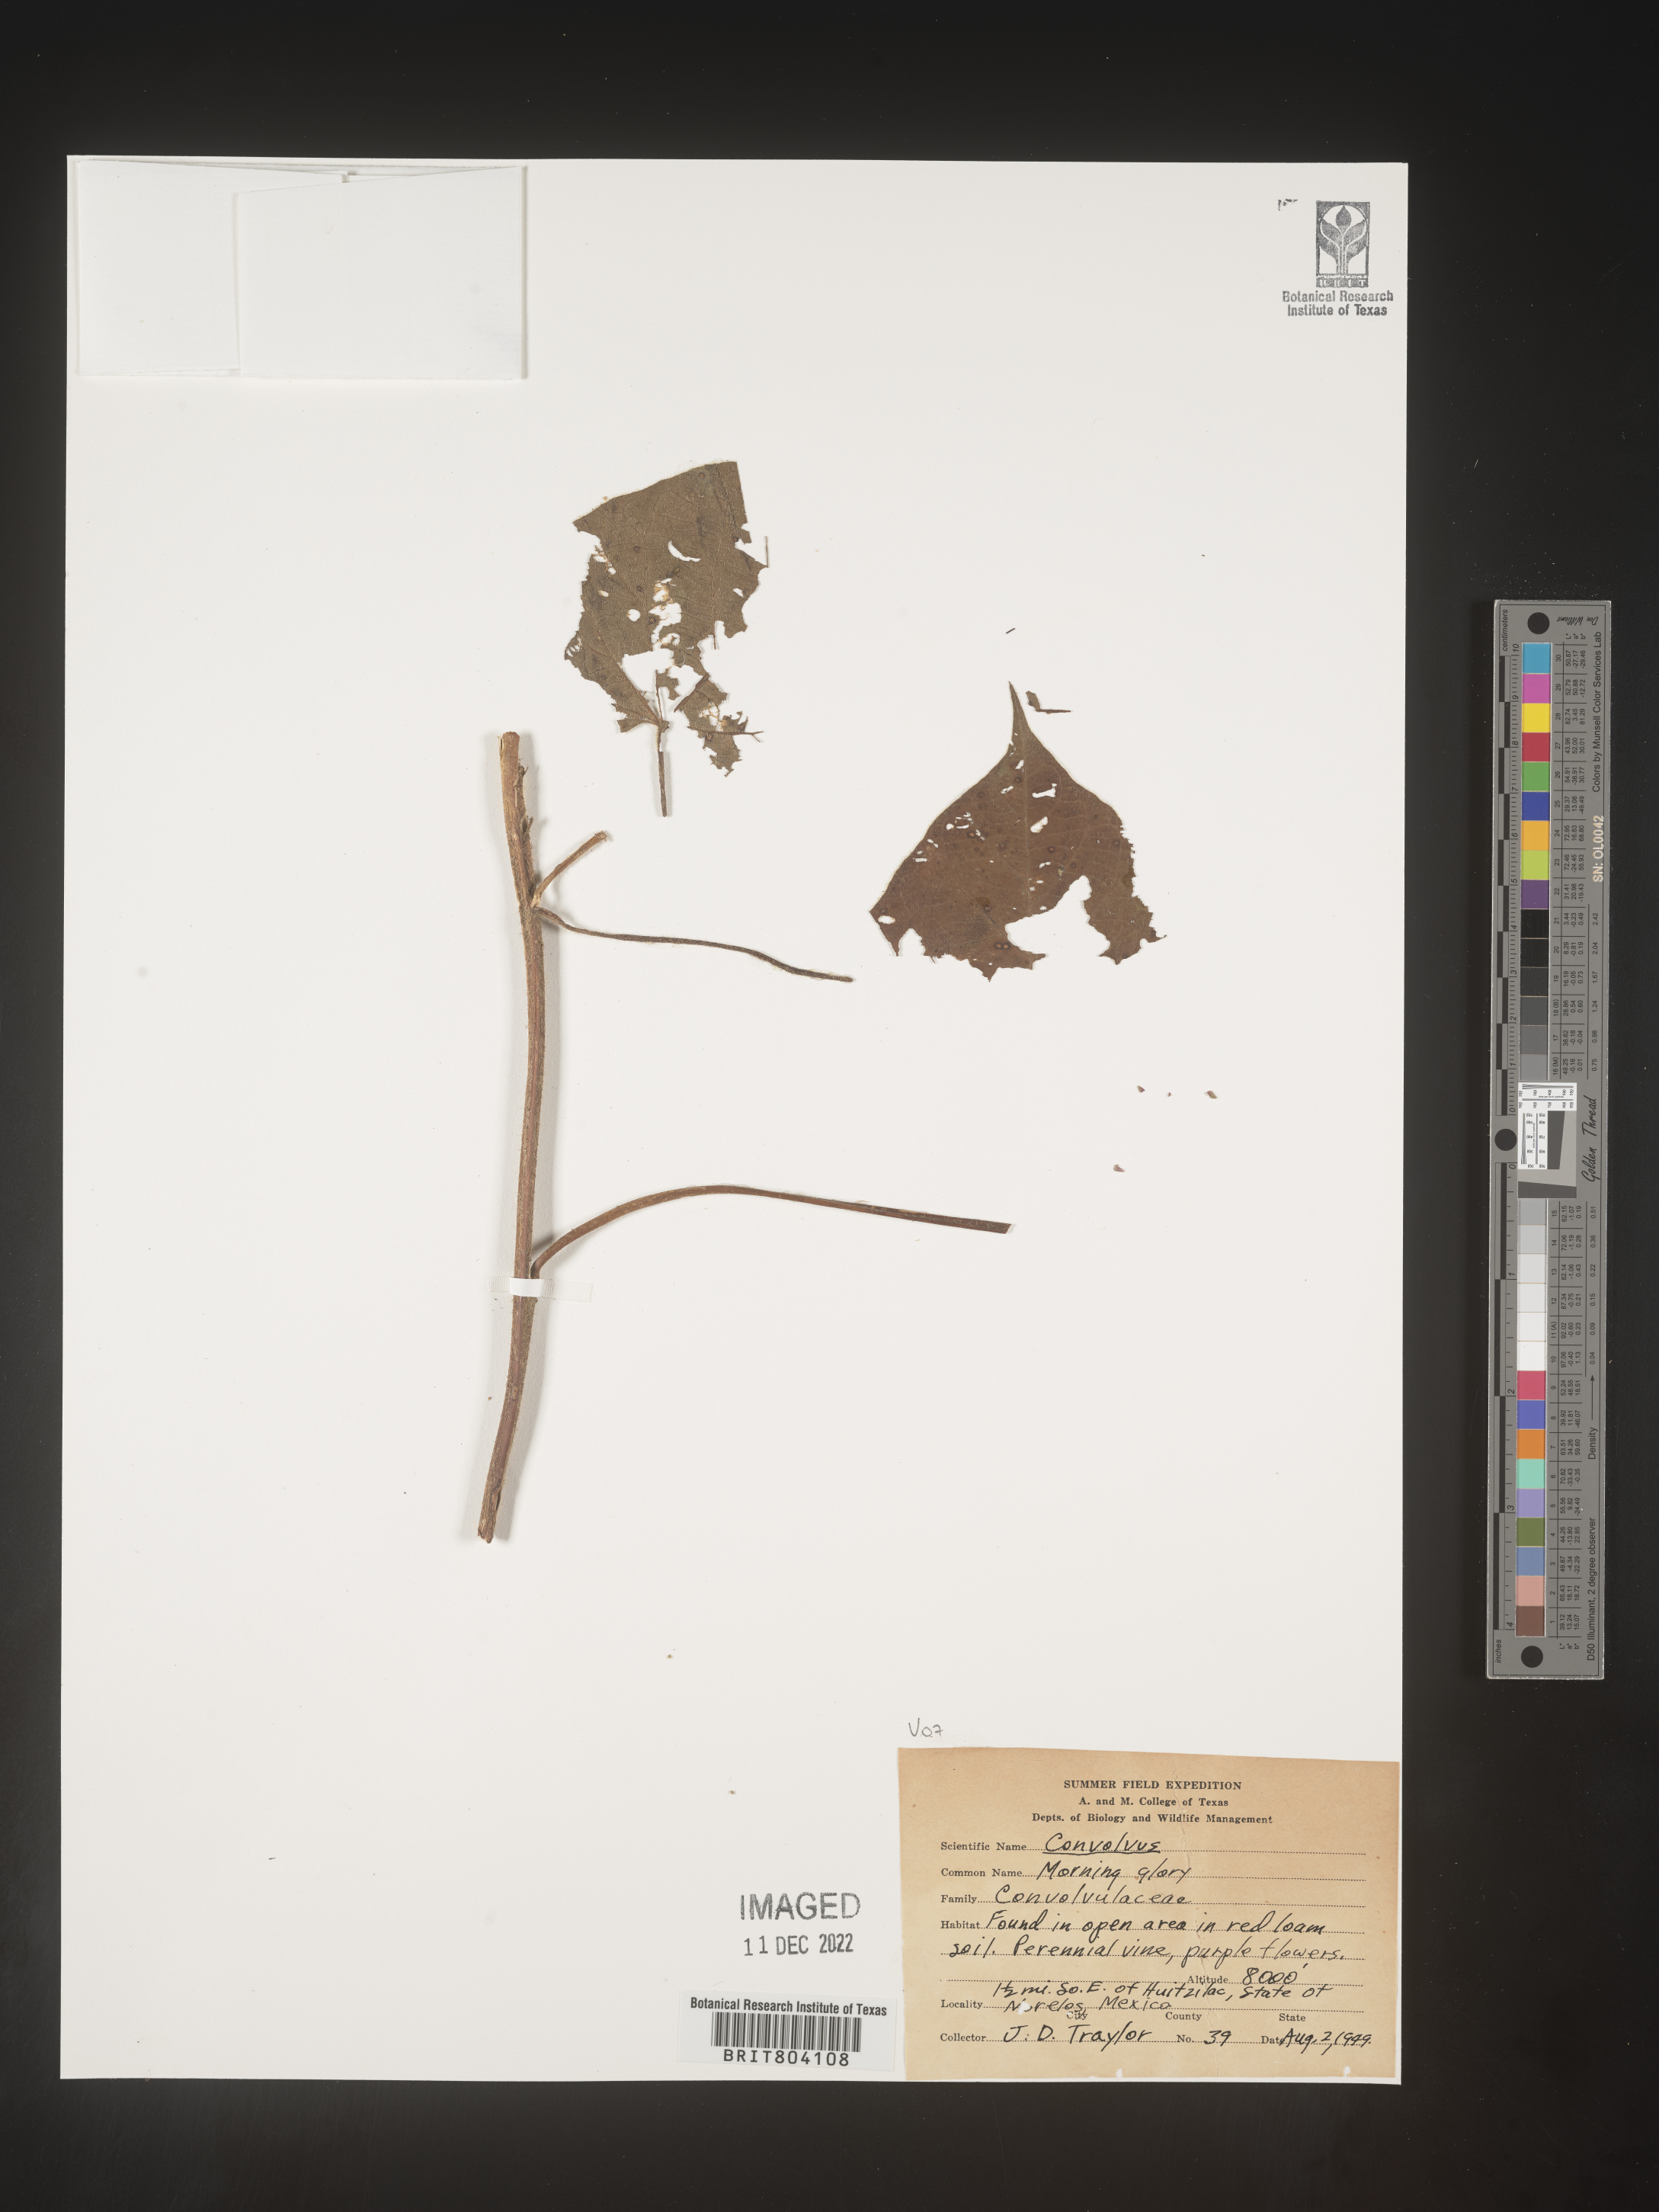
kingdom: Plantae
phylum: Tracheophyta
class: Magnoliopsida
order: Solanales
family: Convolvulaceae
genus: Convolvulus
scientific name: Convolvulus
